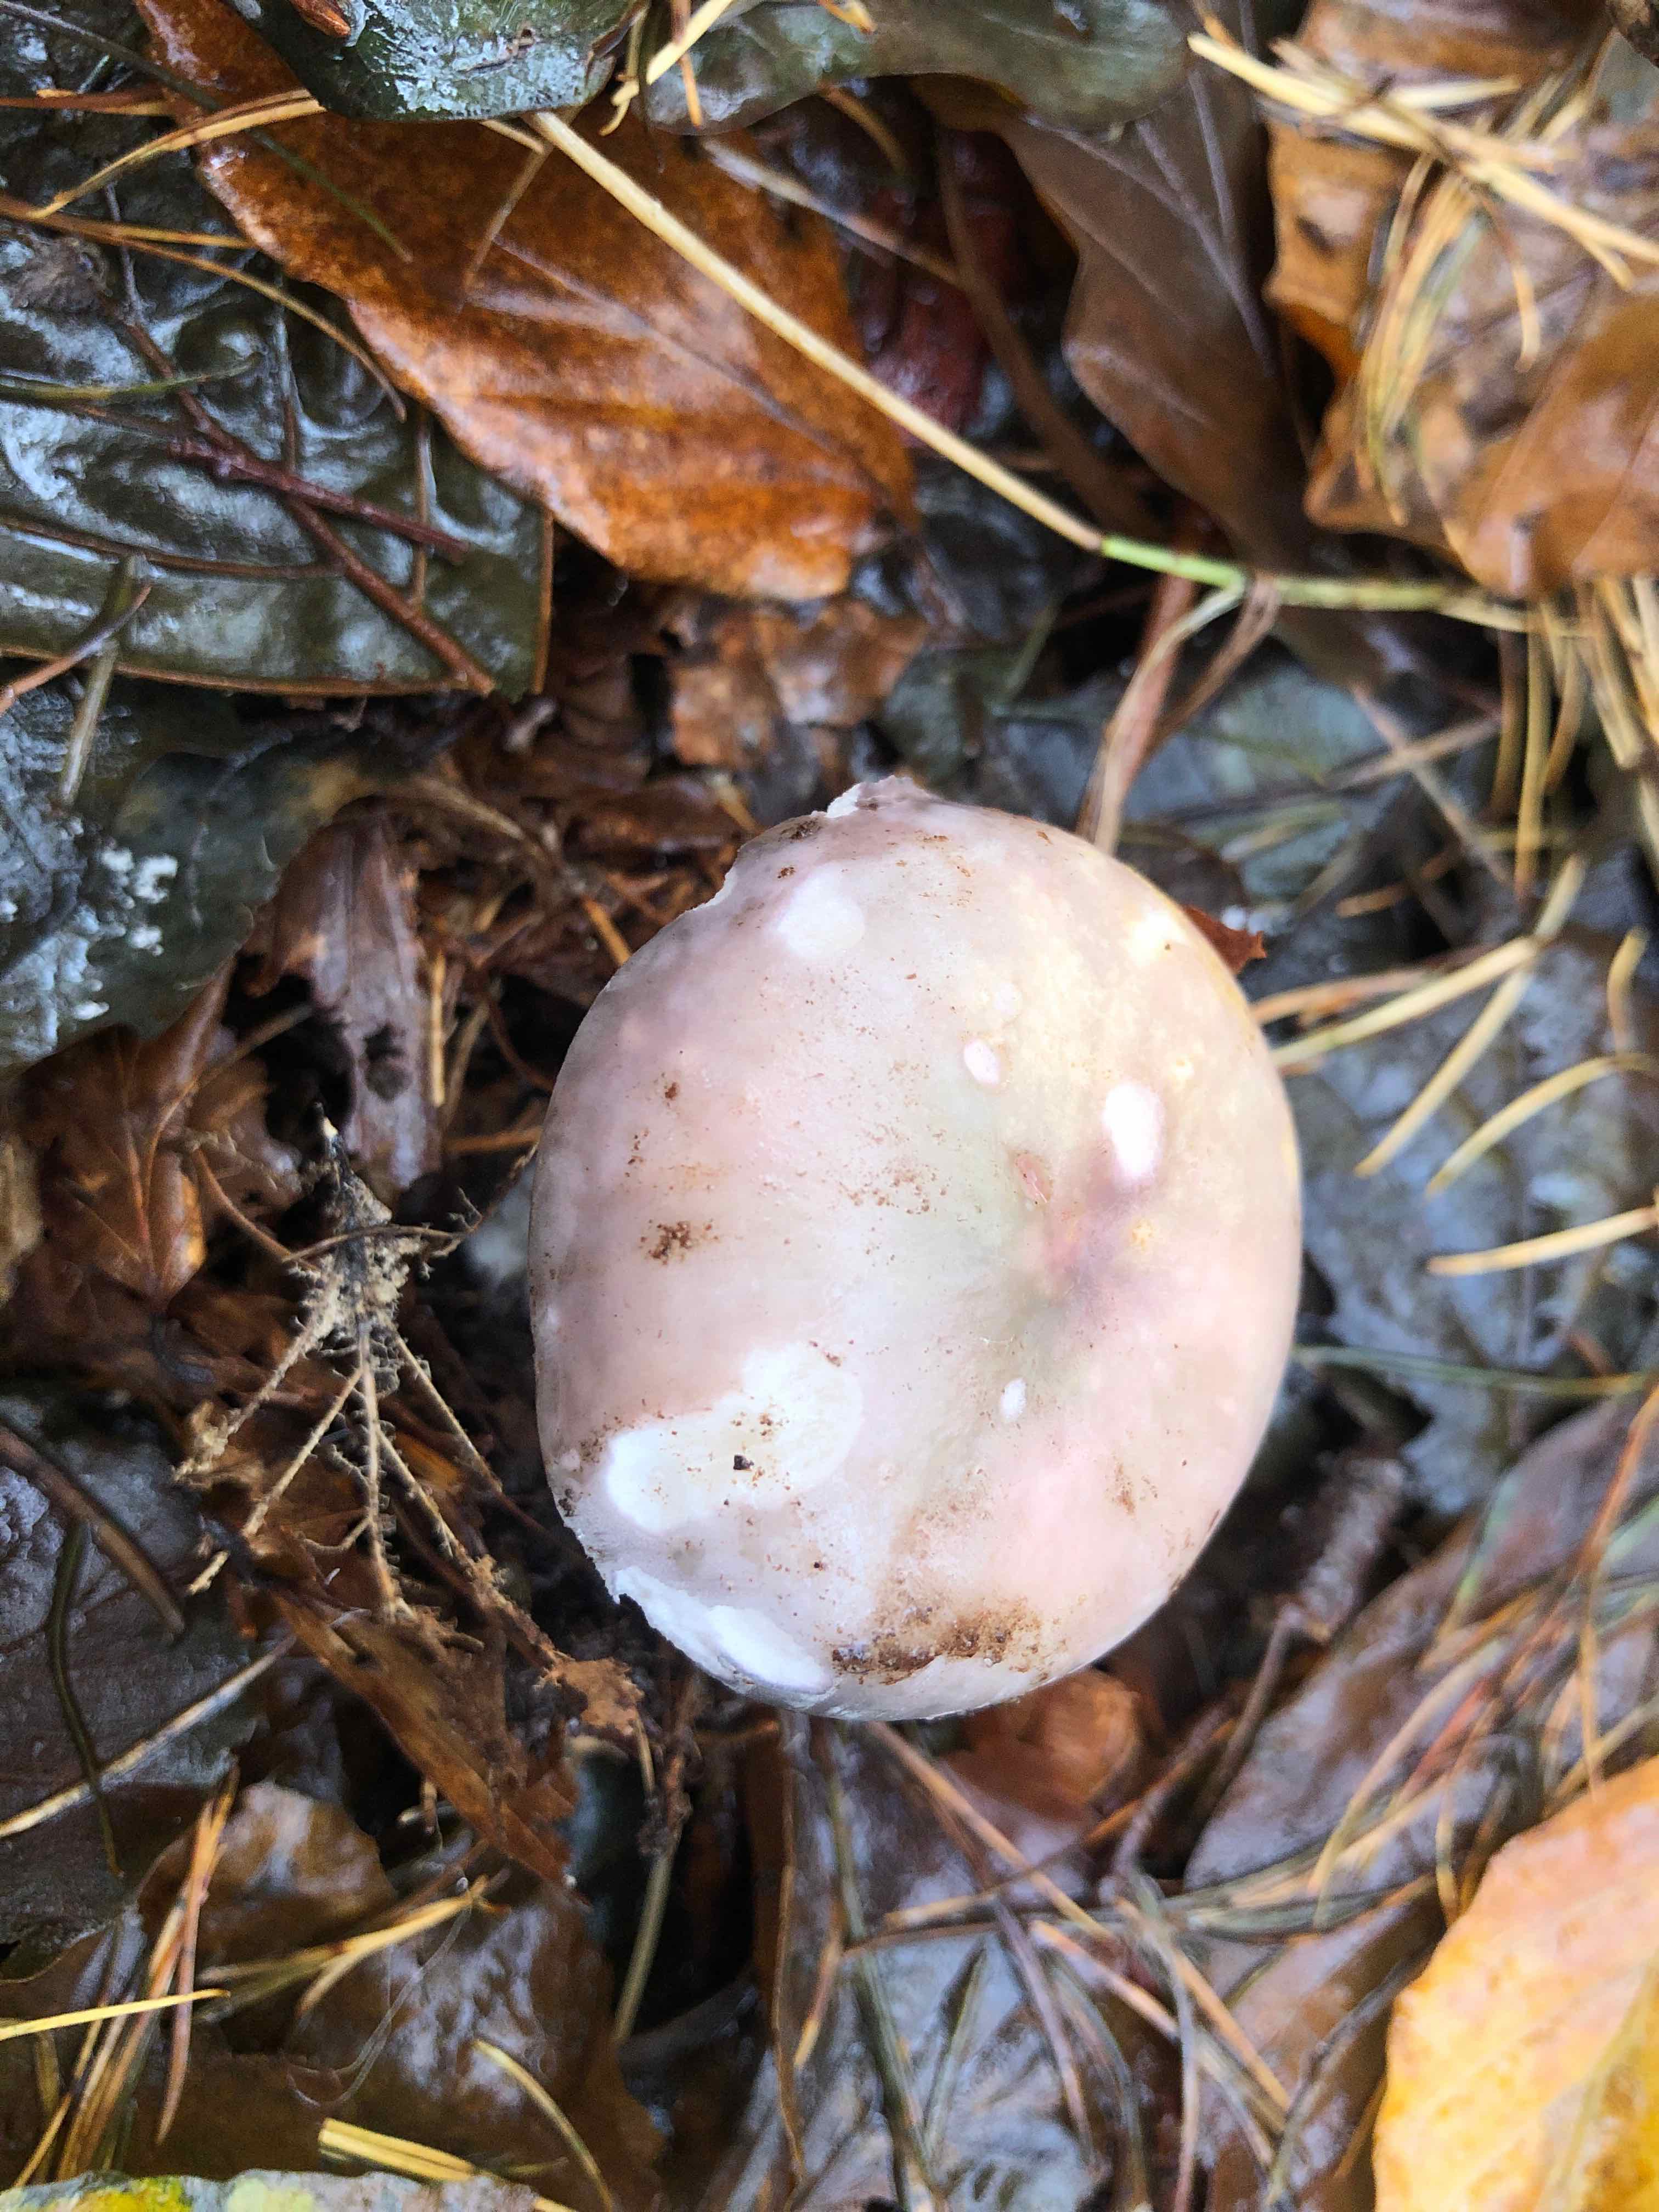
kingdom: Fungi
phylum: Basidiomycota
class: Agaricomycetes
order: Russulales
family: Russulaceae
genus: Russula
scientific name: Russula cyanoxantha
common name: broget skørhat
